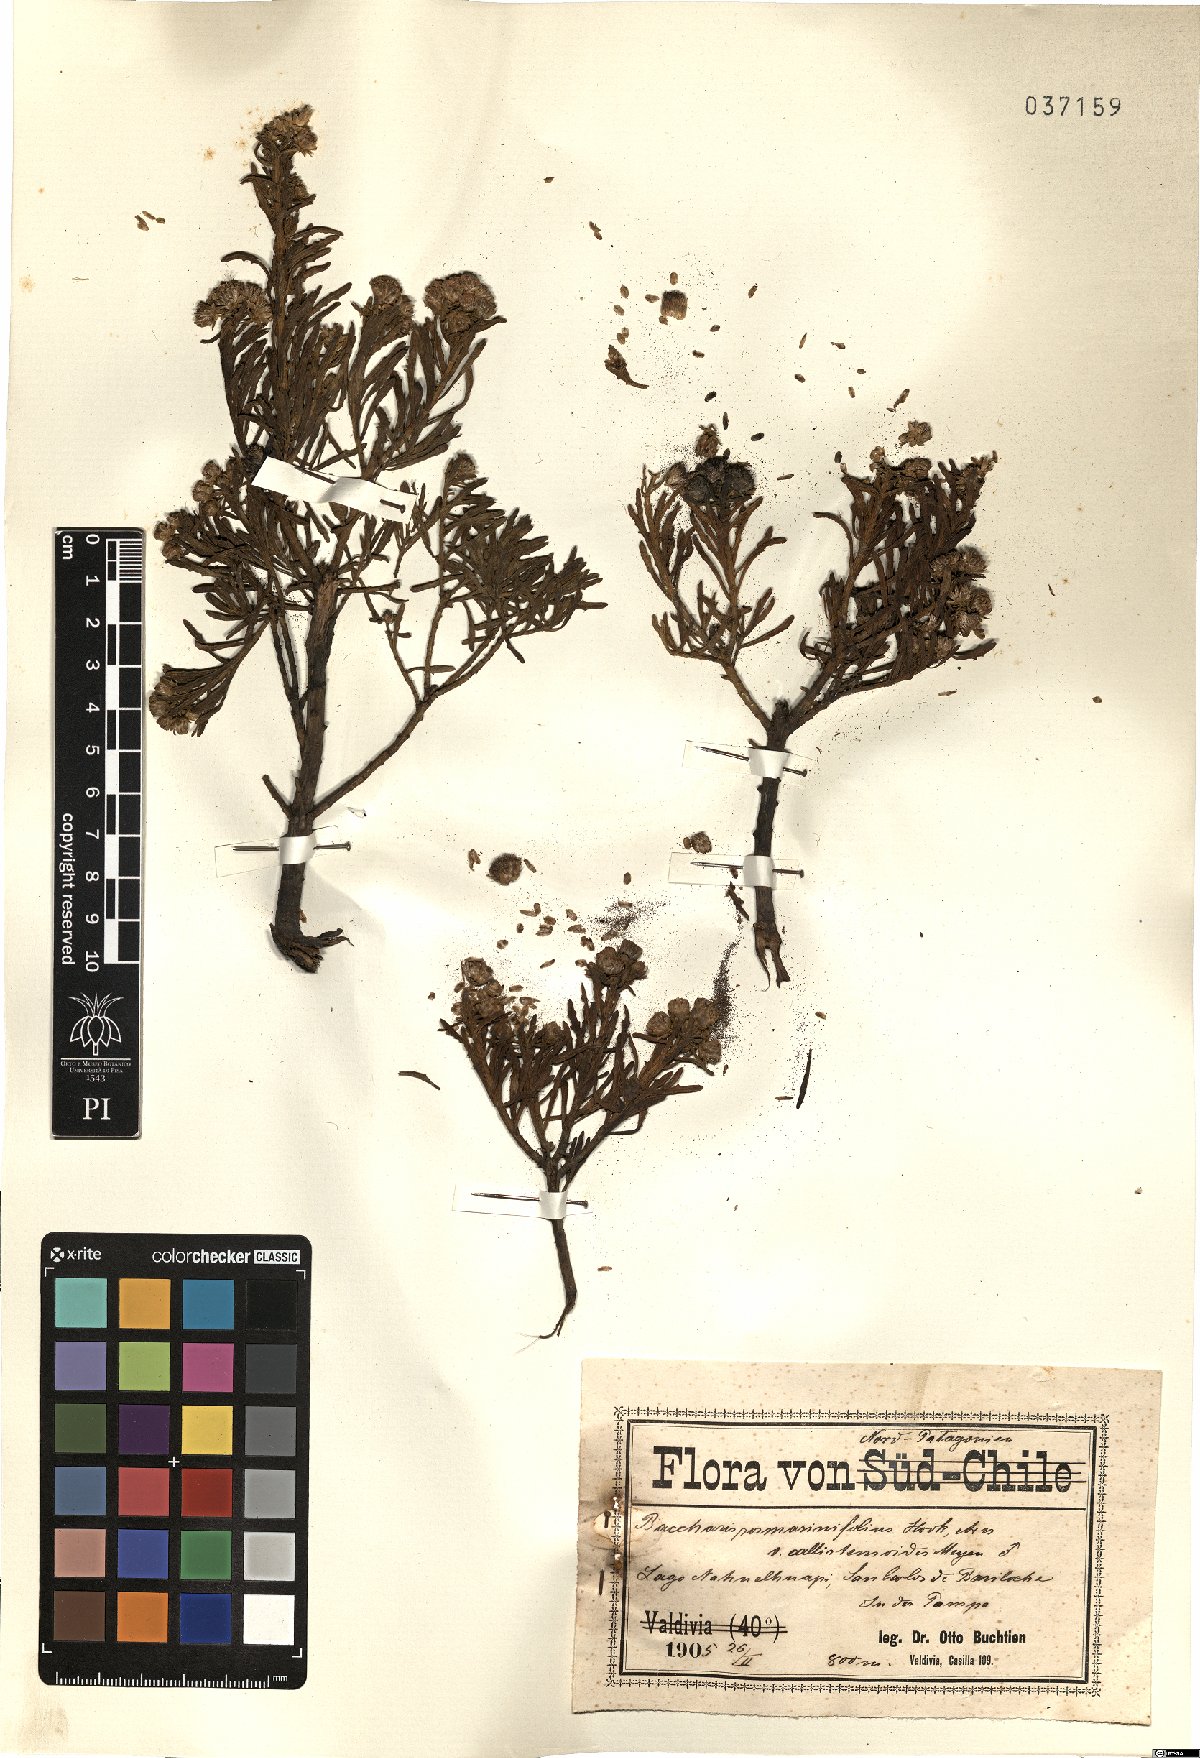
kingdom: Plantae
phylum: Tracheophyta
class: Magnoliopsida
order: Asterales
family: Asteraceae
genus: Baccharis
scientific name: Baccharis pycnocephala
